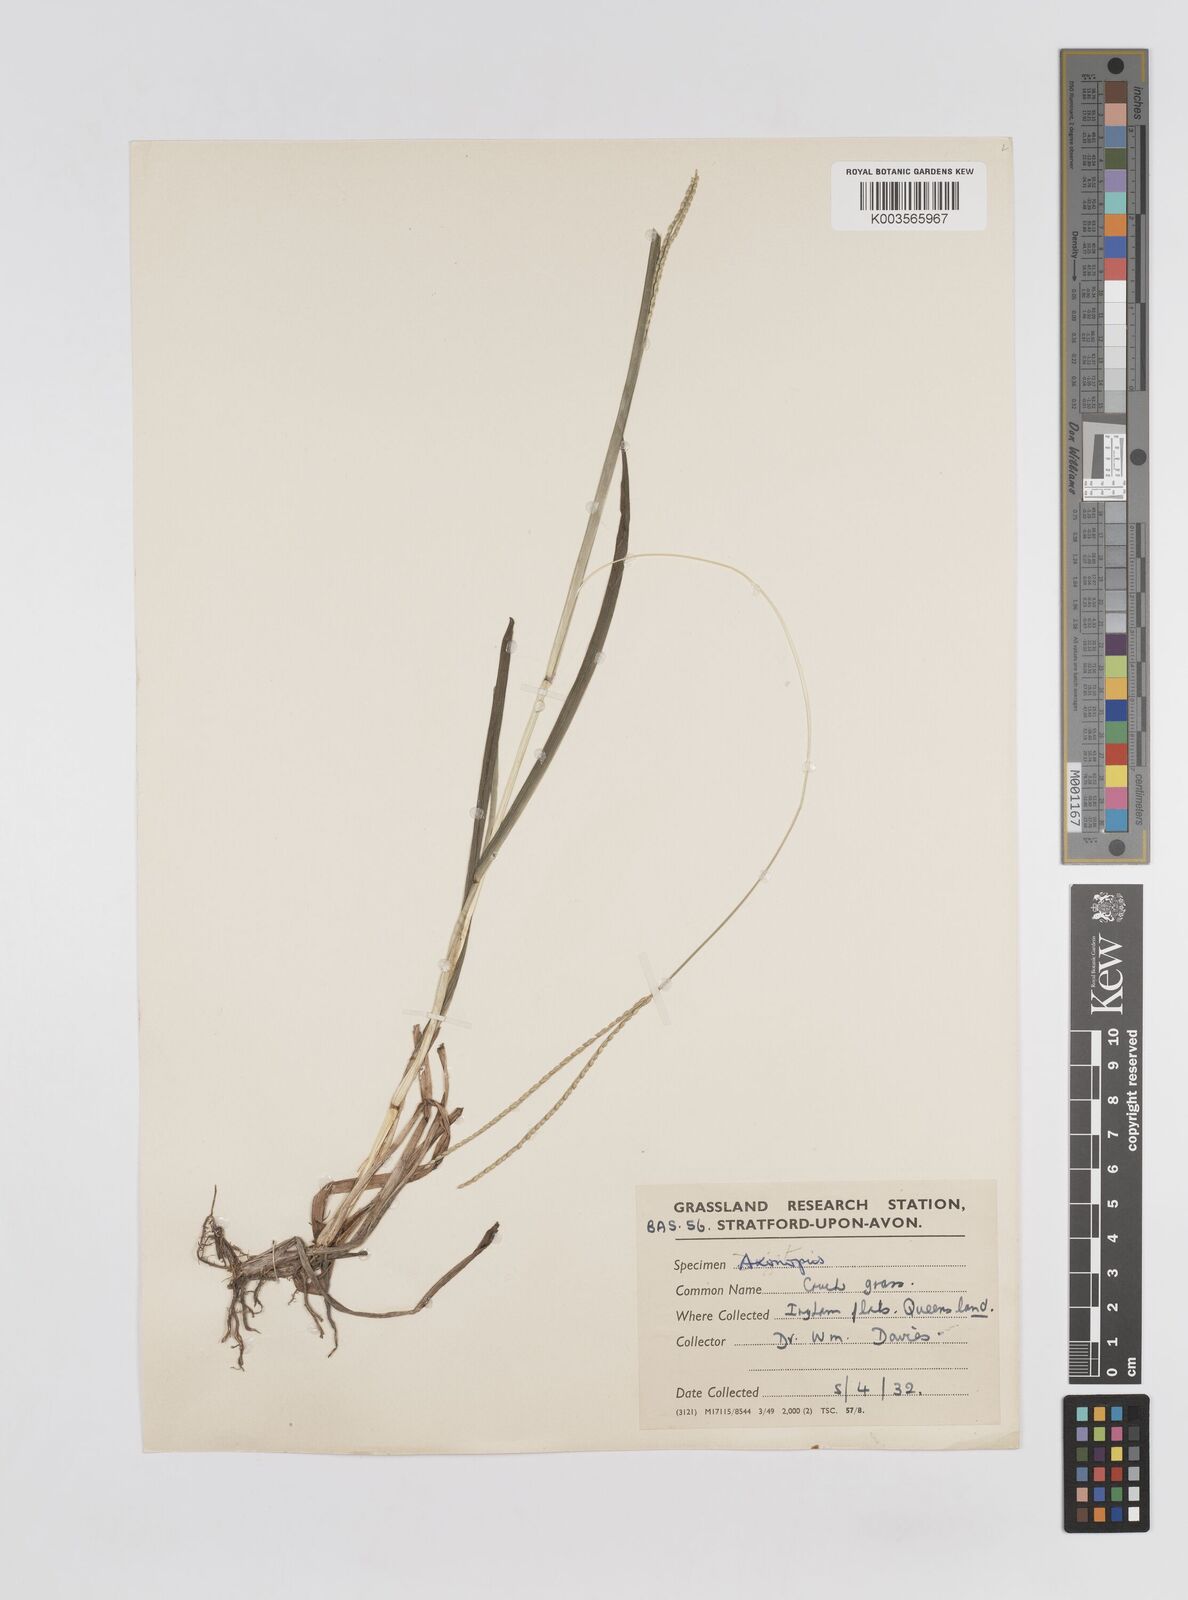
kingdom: Plantae
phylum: Tracheophyta
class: Liliopsida
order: Poales
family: Poaceae
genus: Axonopus
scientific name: Axonopus compressus
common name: American carpet grass
